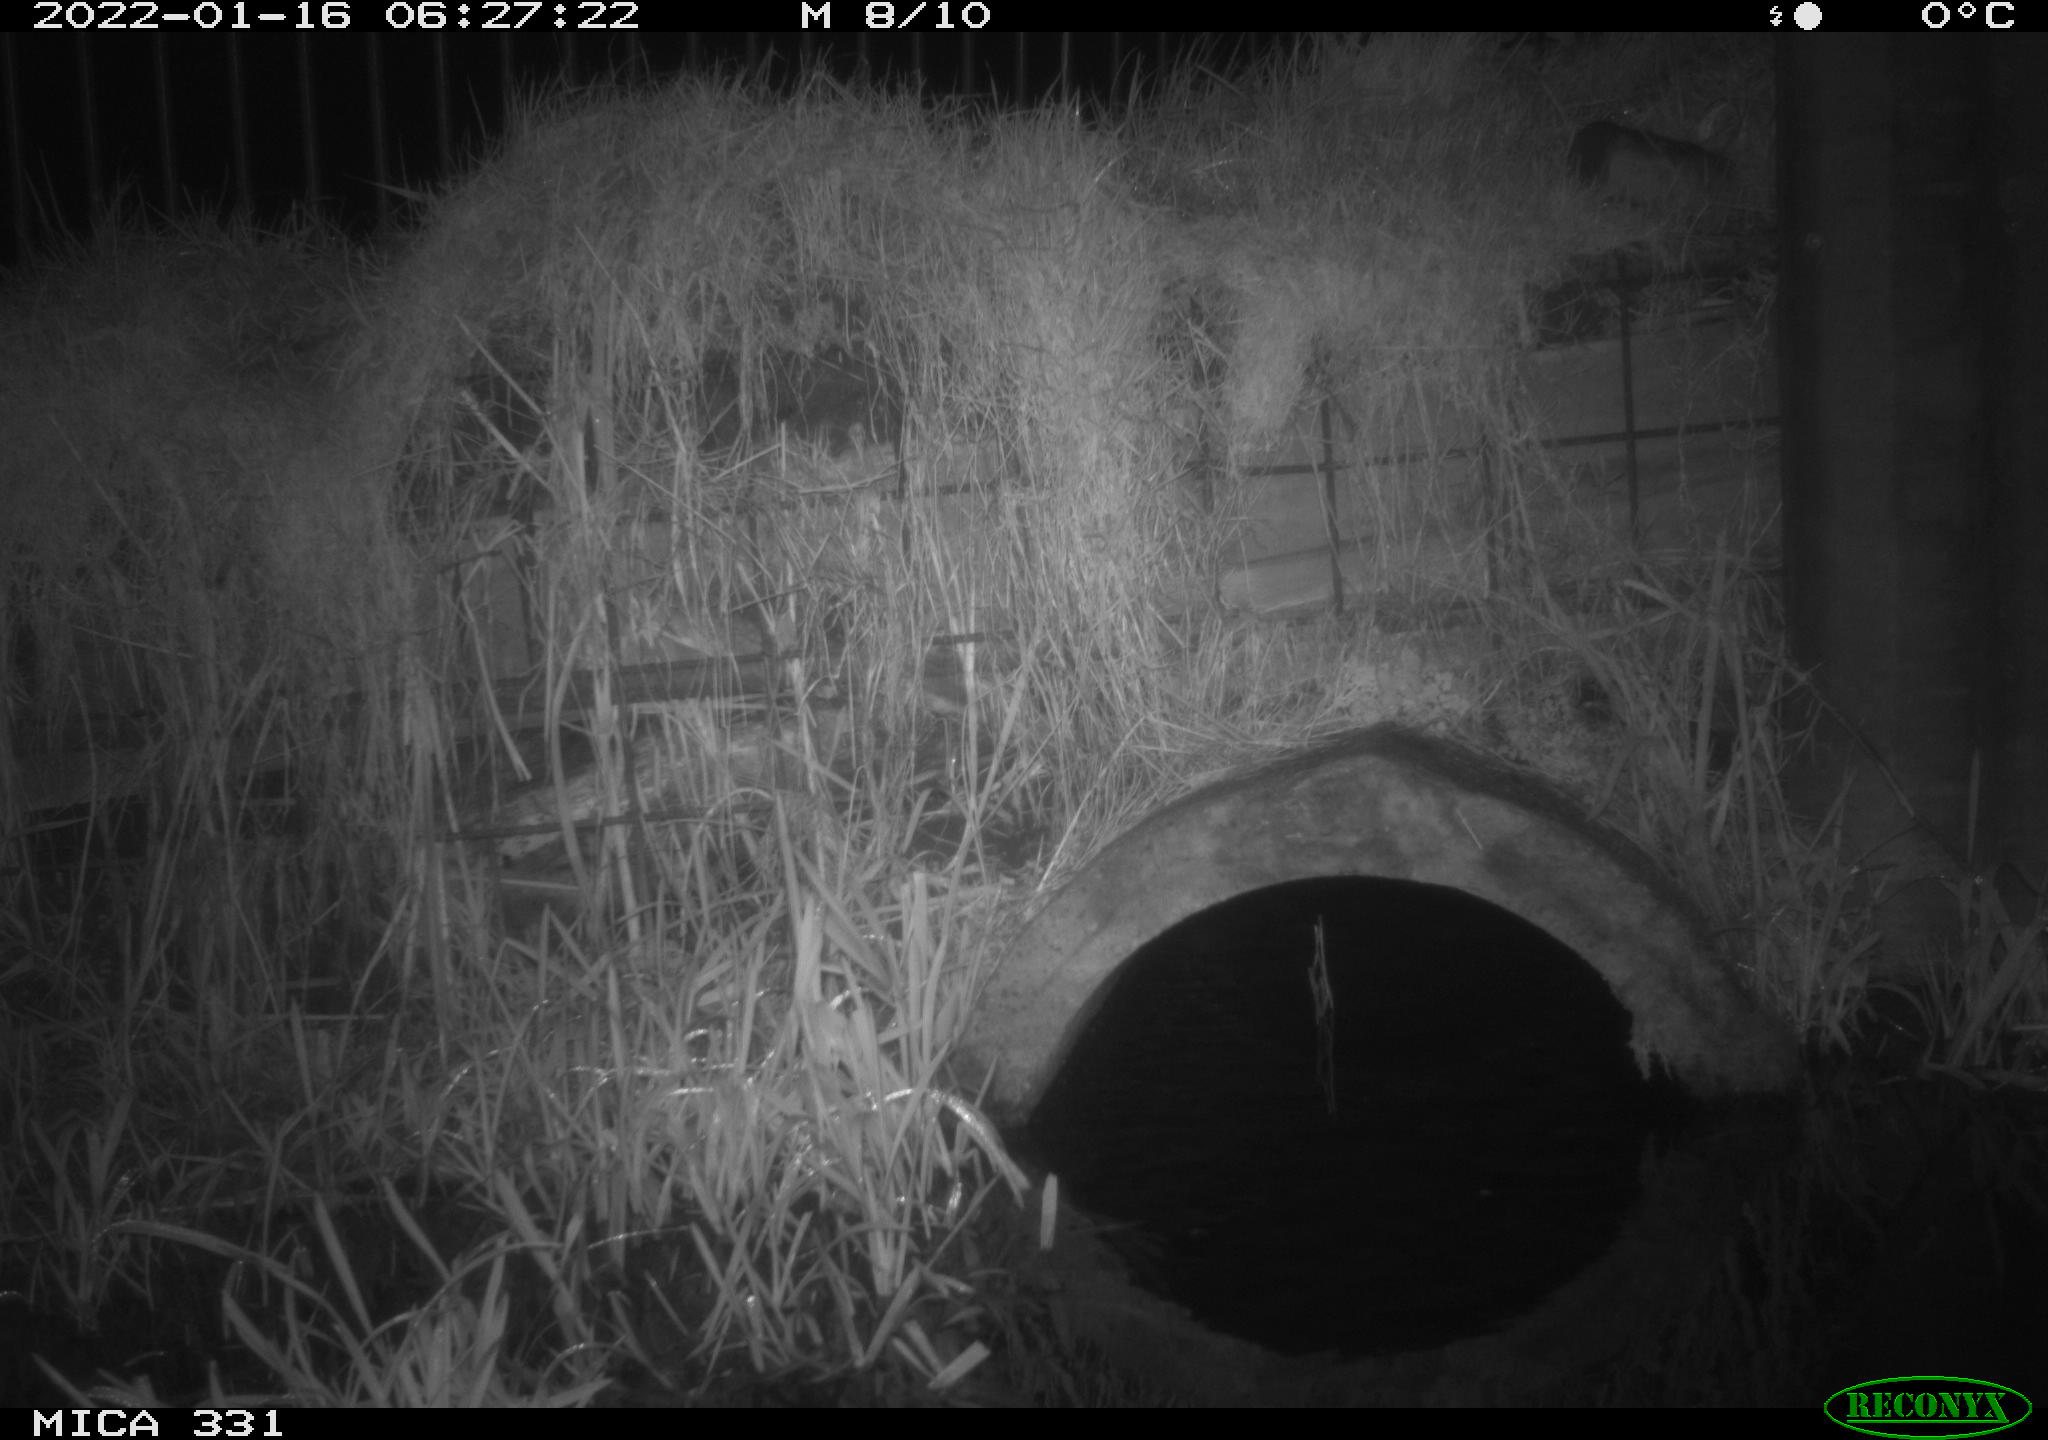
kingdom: Animalia
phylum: Chordata
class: Mammalia
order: Carnivora
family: Canidae
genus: Vulpes
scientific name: Vulpes vulpes
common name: Red fox
